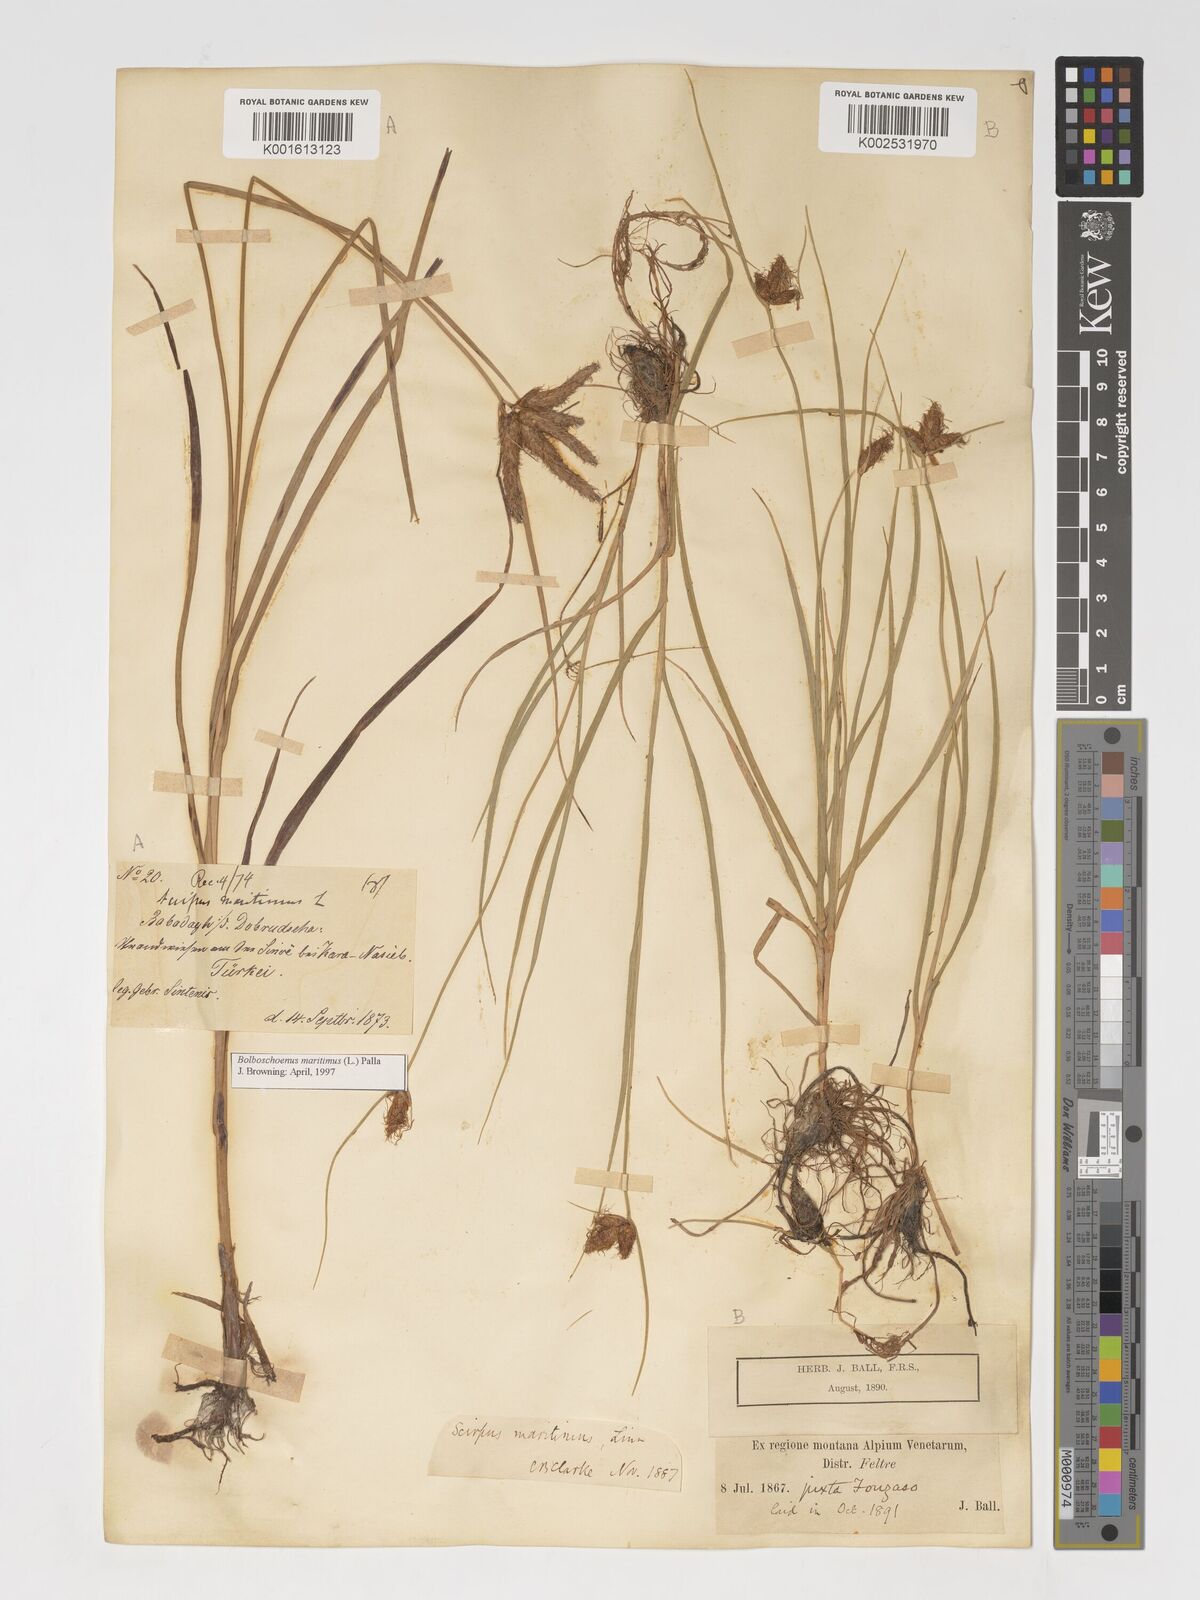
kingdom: Plantae
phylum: Tracheophyta
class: Liliopsida
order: Poales
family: Cyperaceae
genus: Bolboschoenus
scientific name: Bolboschoenus maritimus
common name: Sea club-rush
